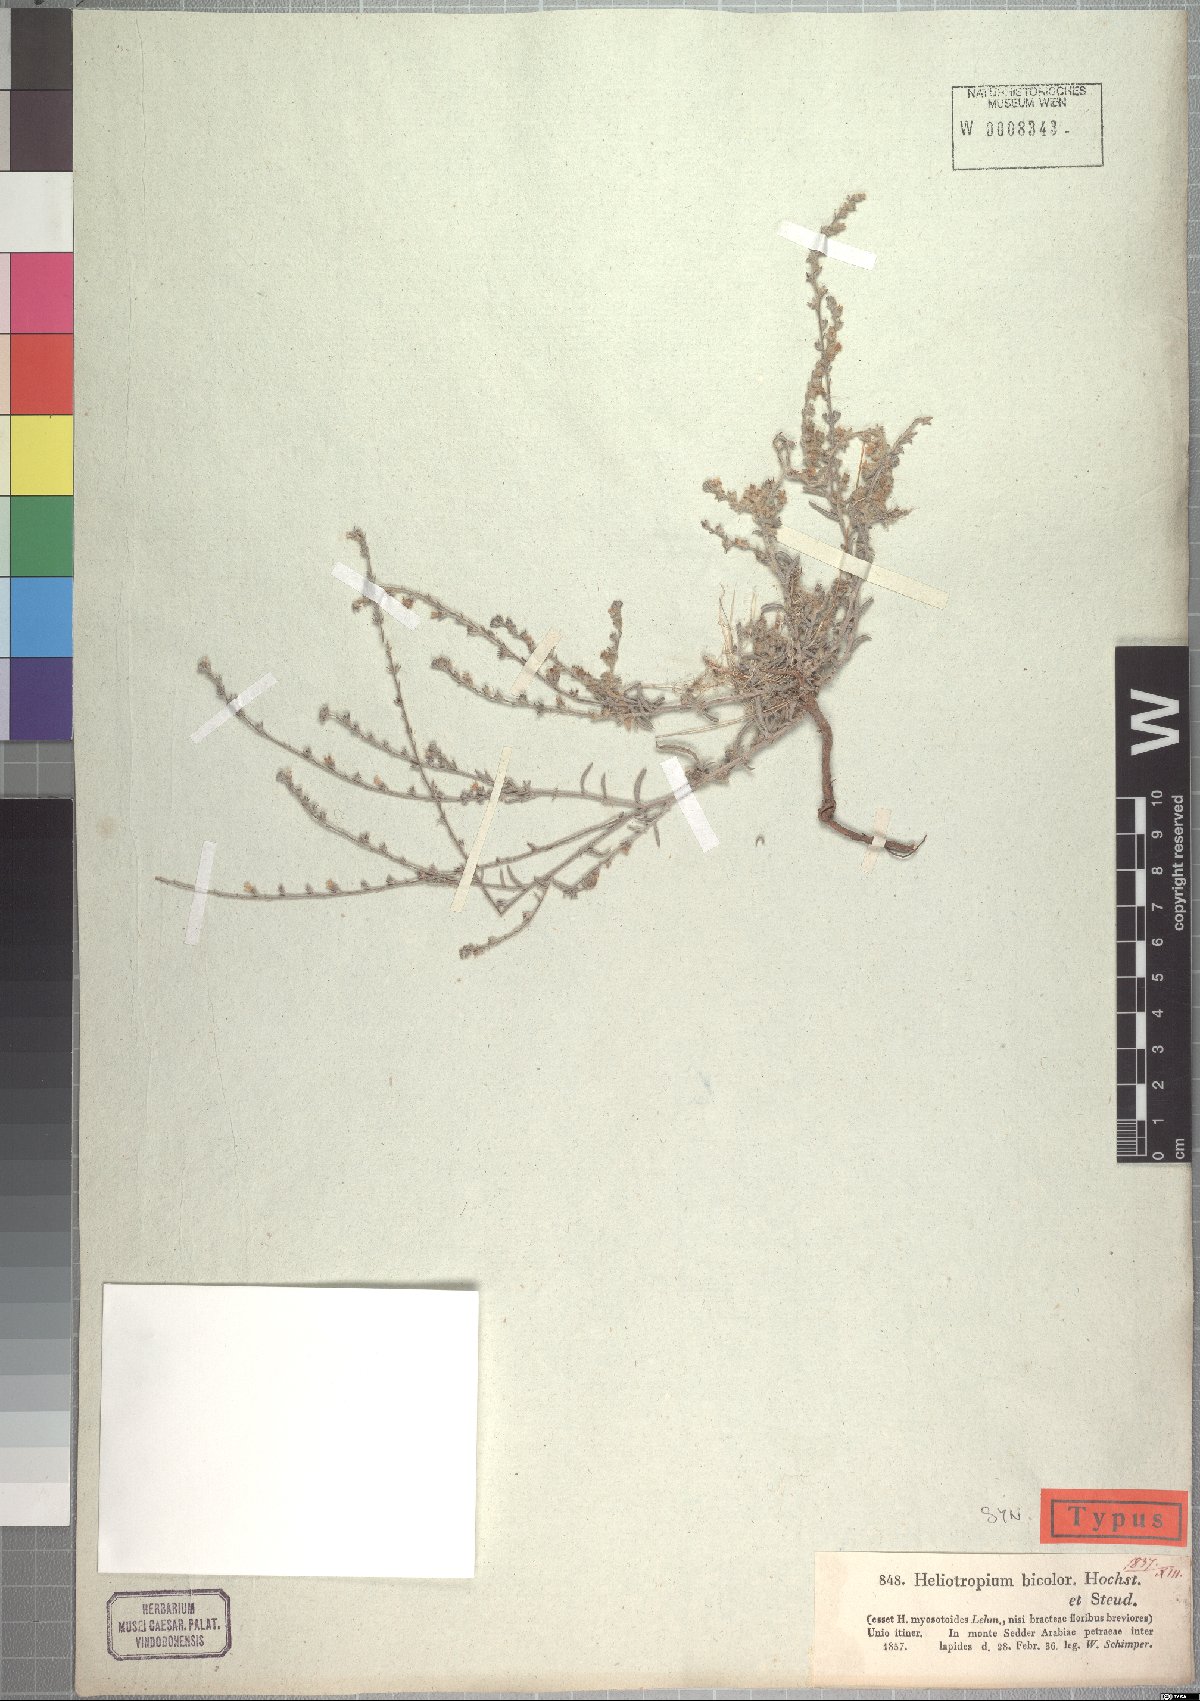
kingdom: Plantae
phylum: Tracheophyta
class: Magnoliopsida
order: Boraginales
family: Heliotropiaceae
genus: Euploca
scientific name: Euploca strigosa
